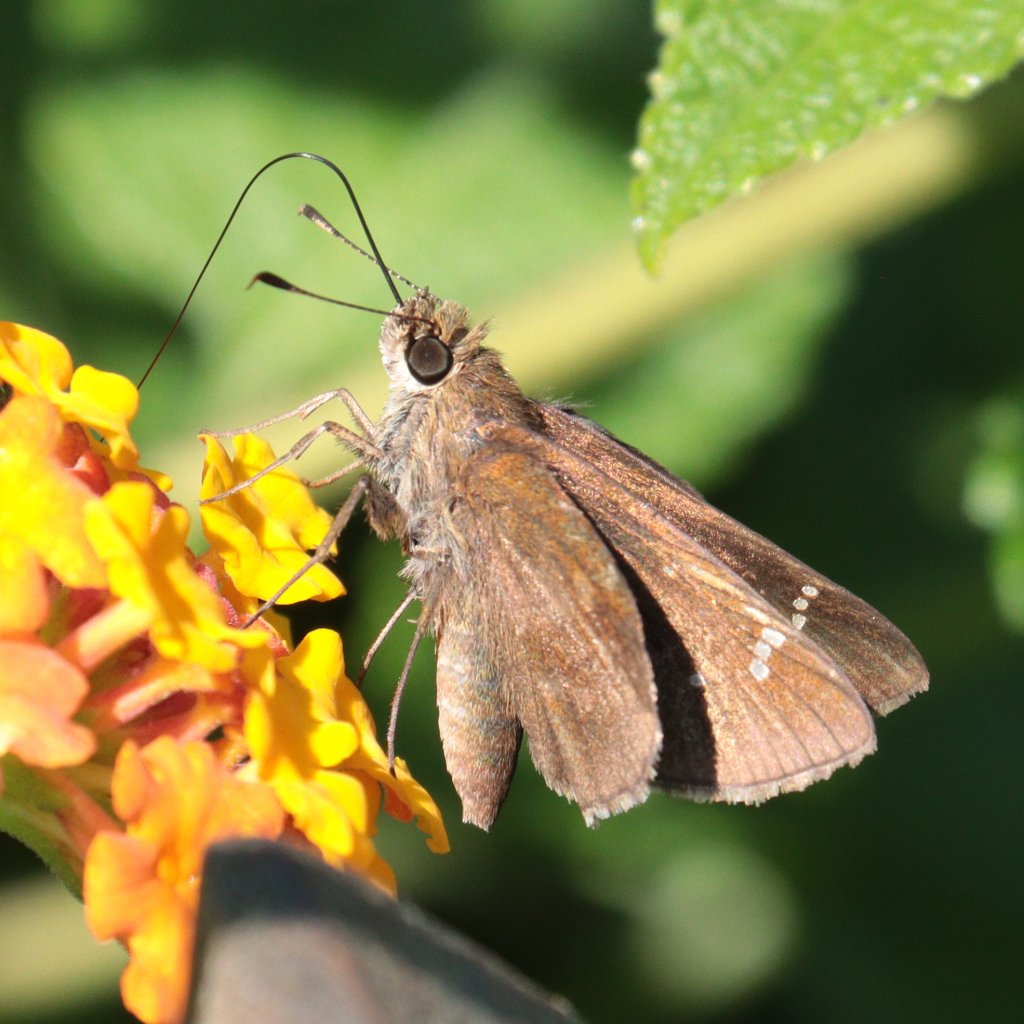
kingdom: Animalia
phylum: Arthropoda
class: Insecta
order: Lepidoptera
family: Hesperiidae
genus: Lerema
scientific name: Lerema accius
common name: Clouded Skipper
